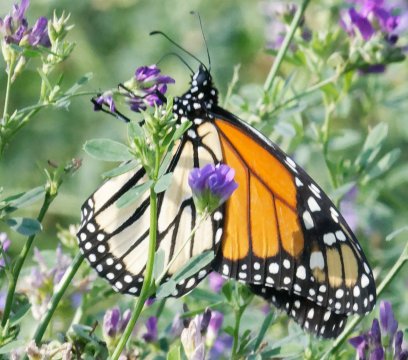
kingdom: Animalia
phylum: Arthropoda
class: Insecta
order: Lepidoptera
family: Nymphalidae
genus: Danaus
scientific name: Danaus plexippus
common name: Monarch
